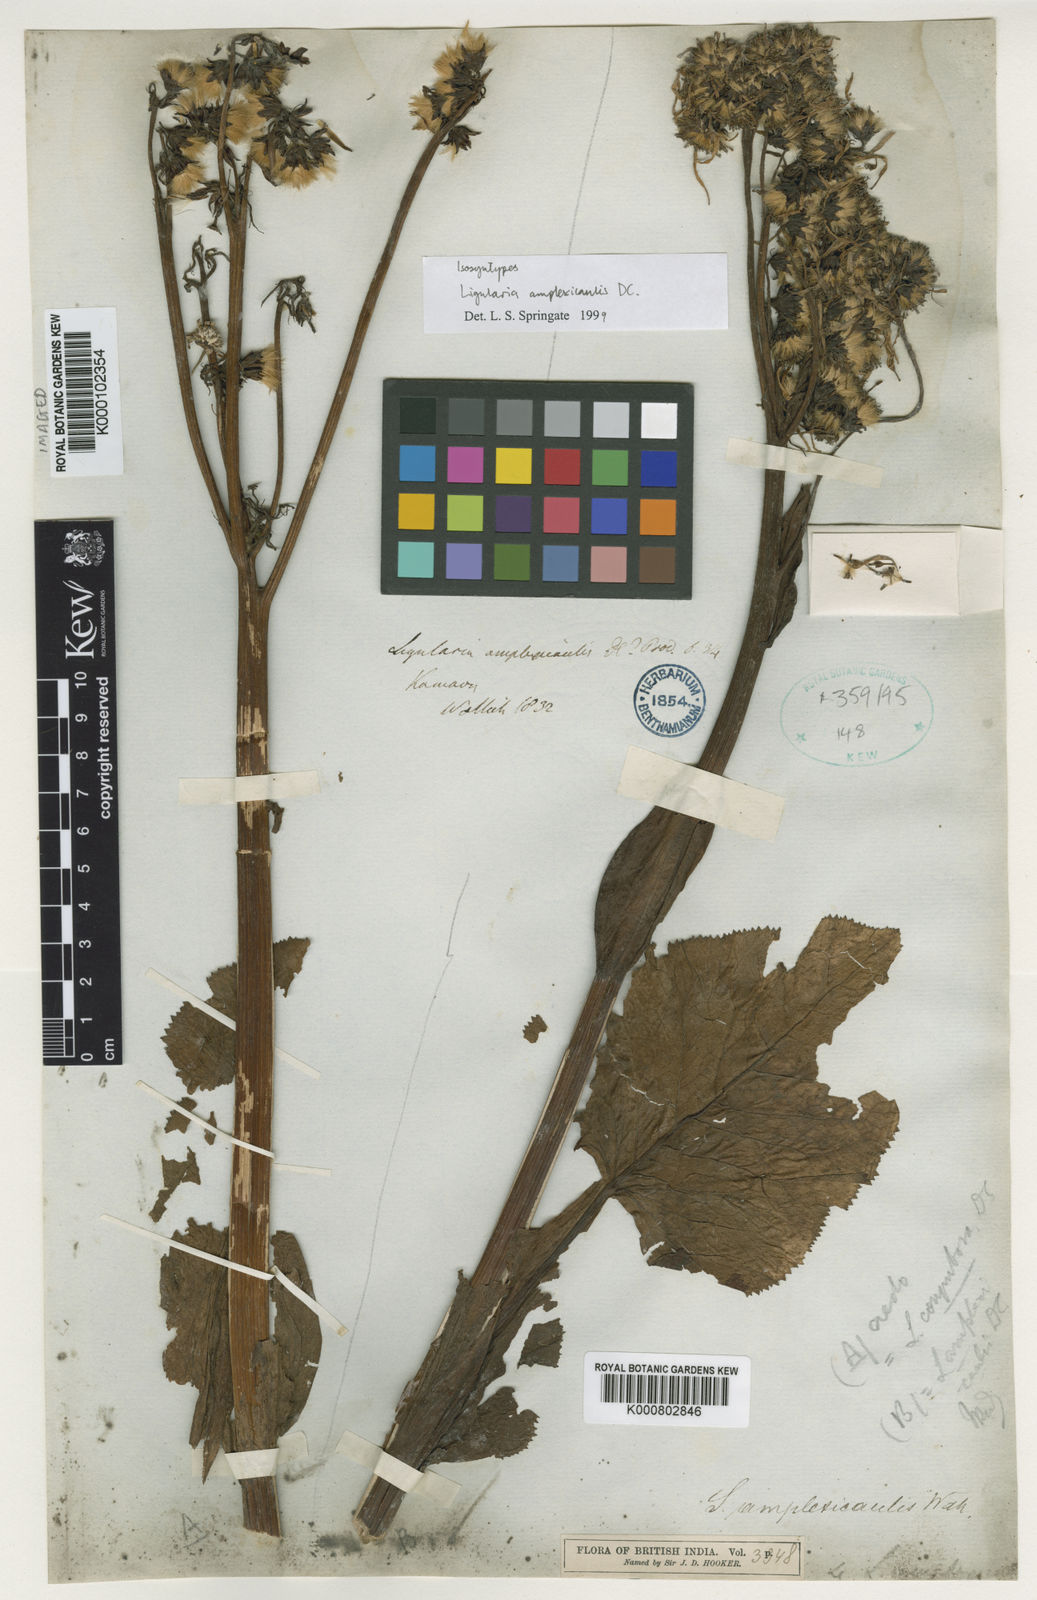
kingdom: Plantae
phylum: Tracheophyta
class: Magnoliopsida
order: Asterales
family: Asteraceae
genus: Ligularia
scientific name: Ligularia amplexicaulis
